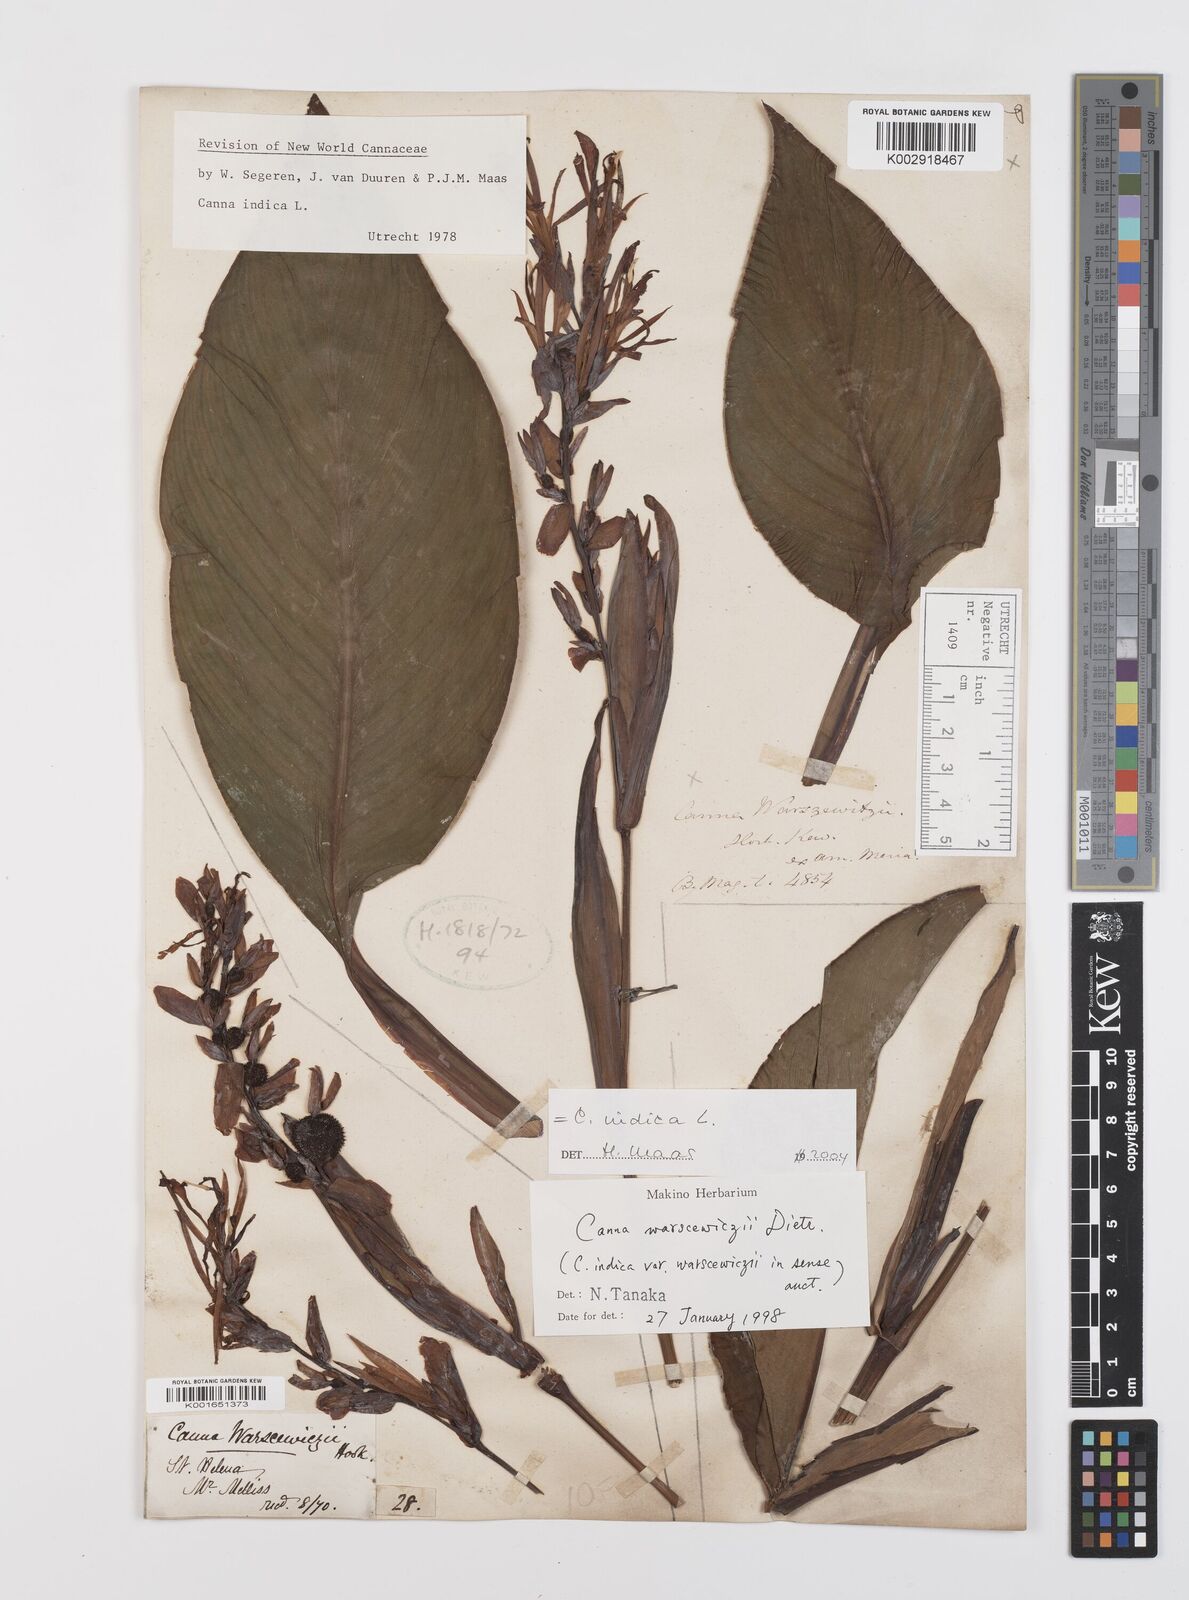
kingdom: Plantae
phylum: Tracheophyta
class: Liliopsida
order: Zingiberales
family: Cannaceae
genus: Canna
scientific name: Canna indica
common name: Indian shot
